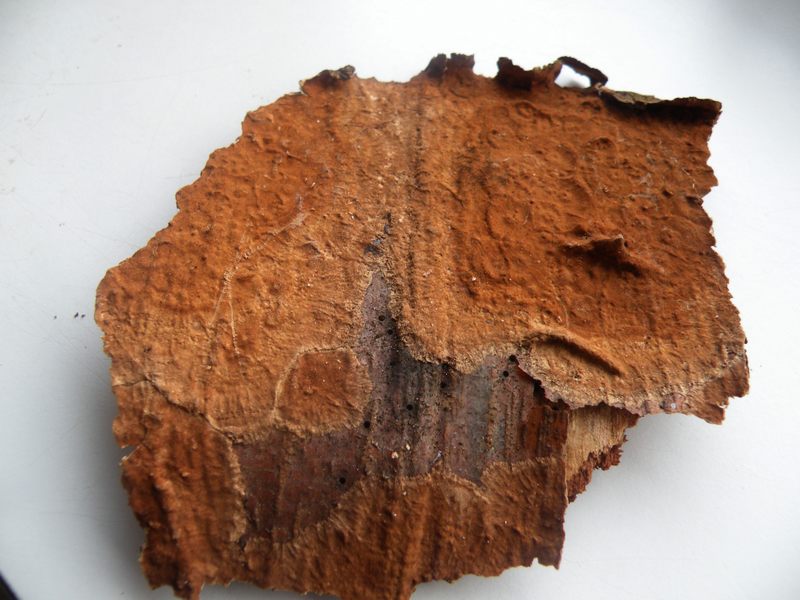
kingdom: Fungi
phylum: Basidiomycota
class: Agaricomycetes
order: Hymenochaetales
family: Hymenochaetaceae
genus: Hydnoporia
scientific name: Hydnoporia tabacina
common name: tobaksbrun ruslædersvamp
